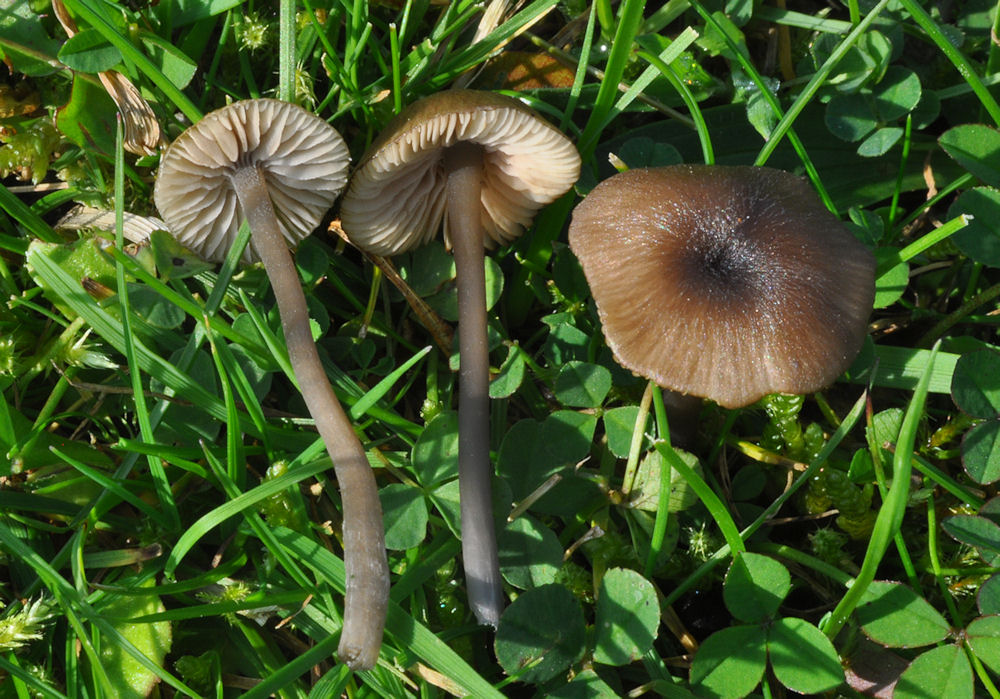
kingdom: Fungi
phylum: Basidiomycota
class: Agaricomycetes
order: Agaricales
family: Entolomataceae
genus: Entoloma
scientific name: Entoloma
